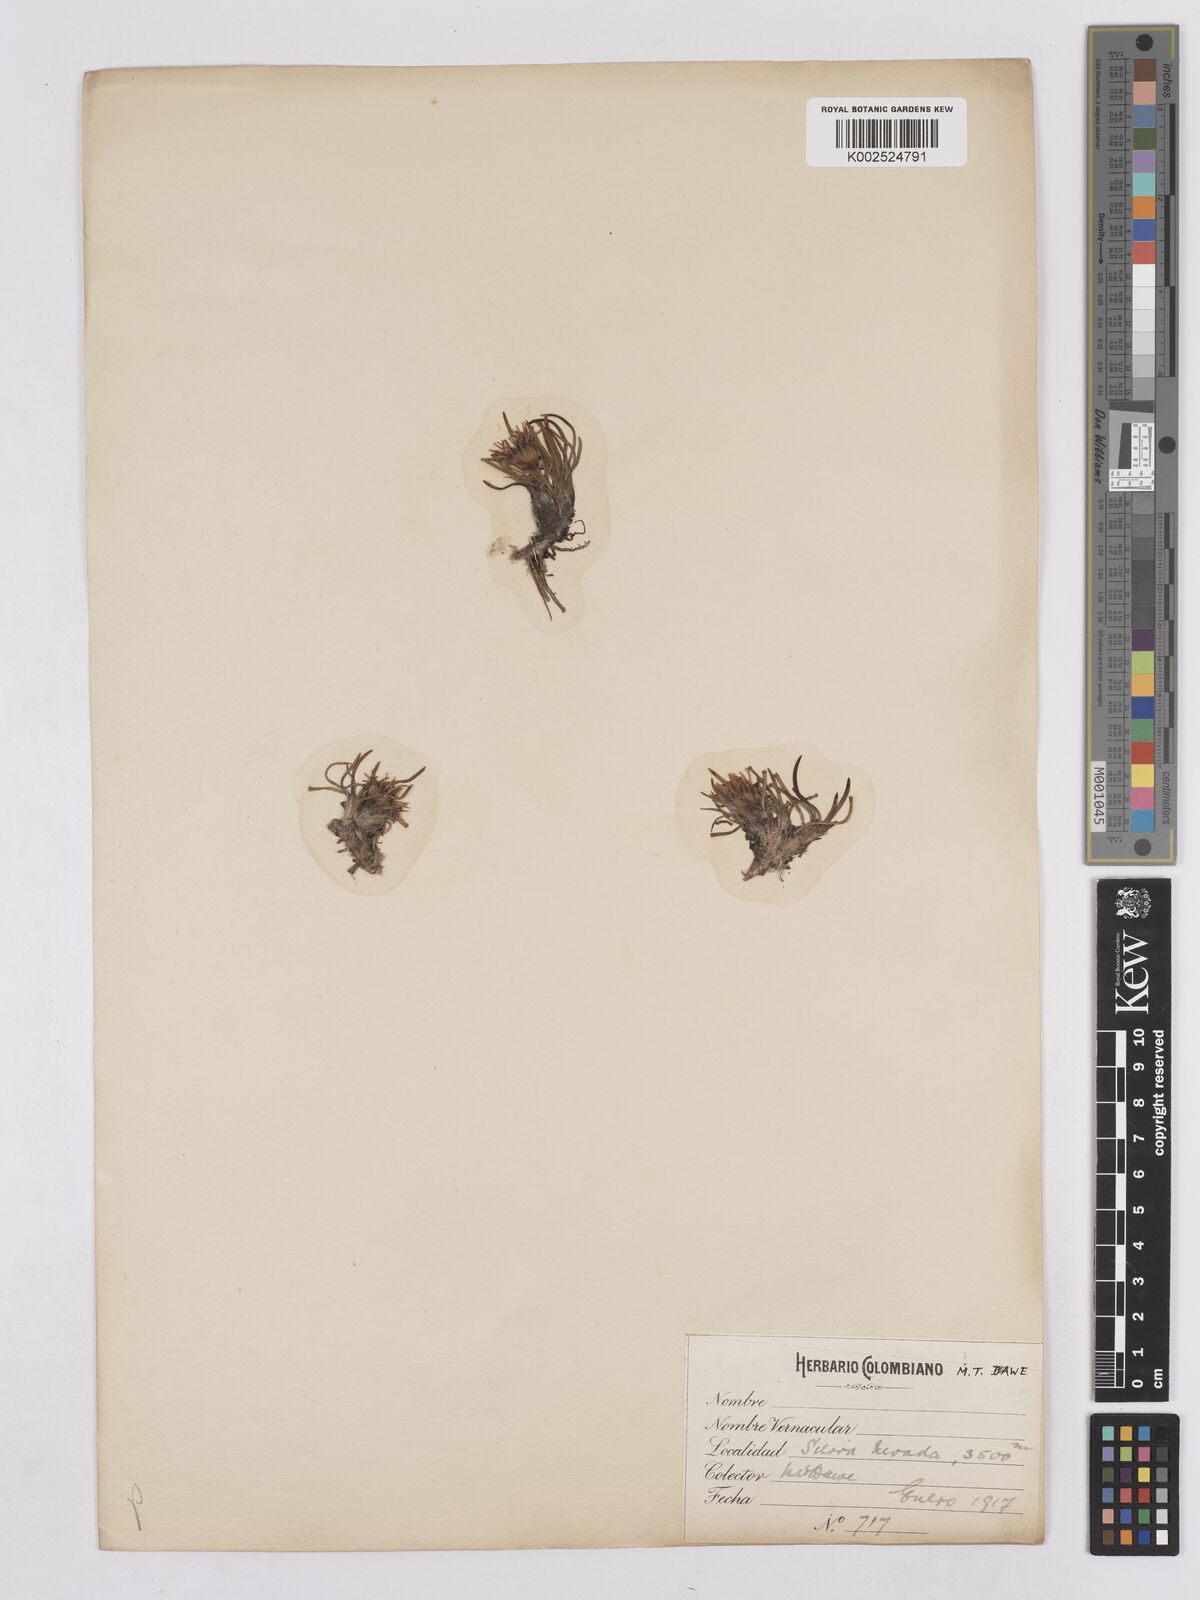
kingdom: Plantae
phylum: Tracheophyta
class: Magnoliopsida
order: Asterales
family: Asteraceae
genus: Rockhausenia
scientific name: Rockhausenia pygmaea
